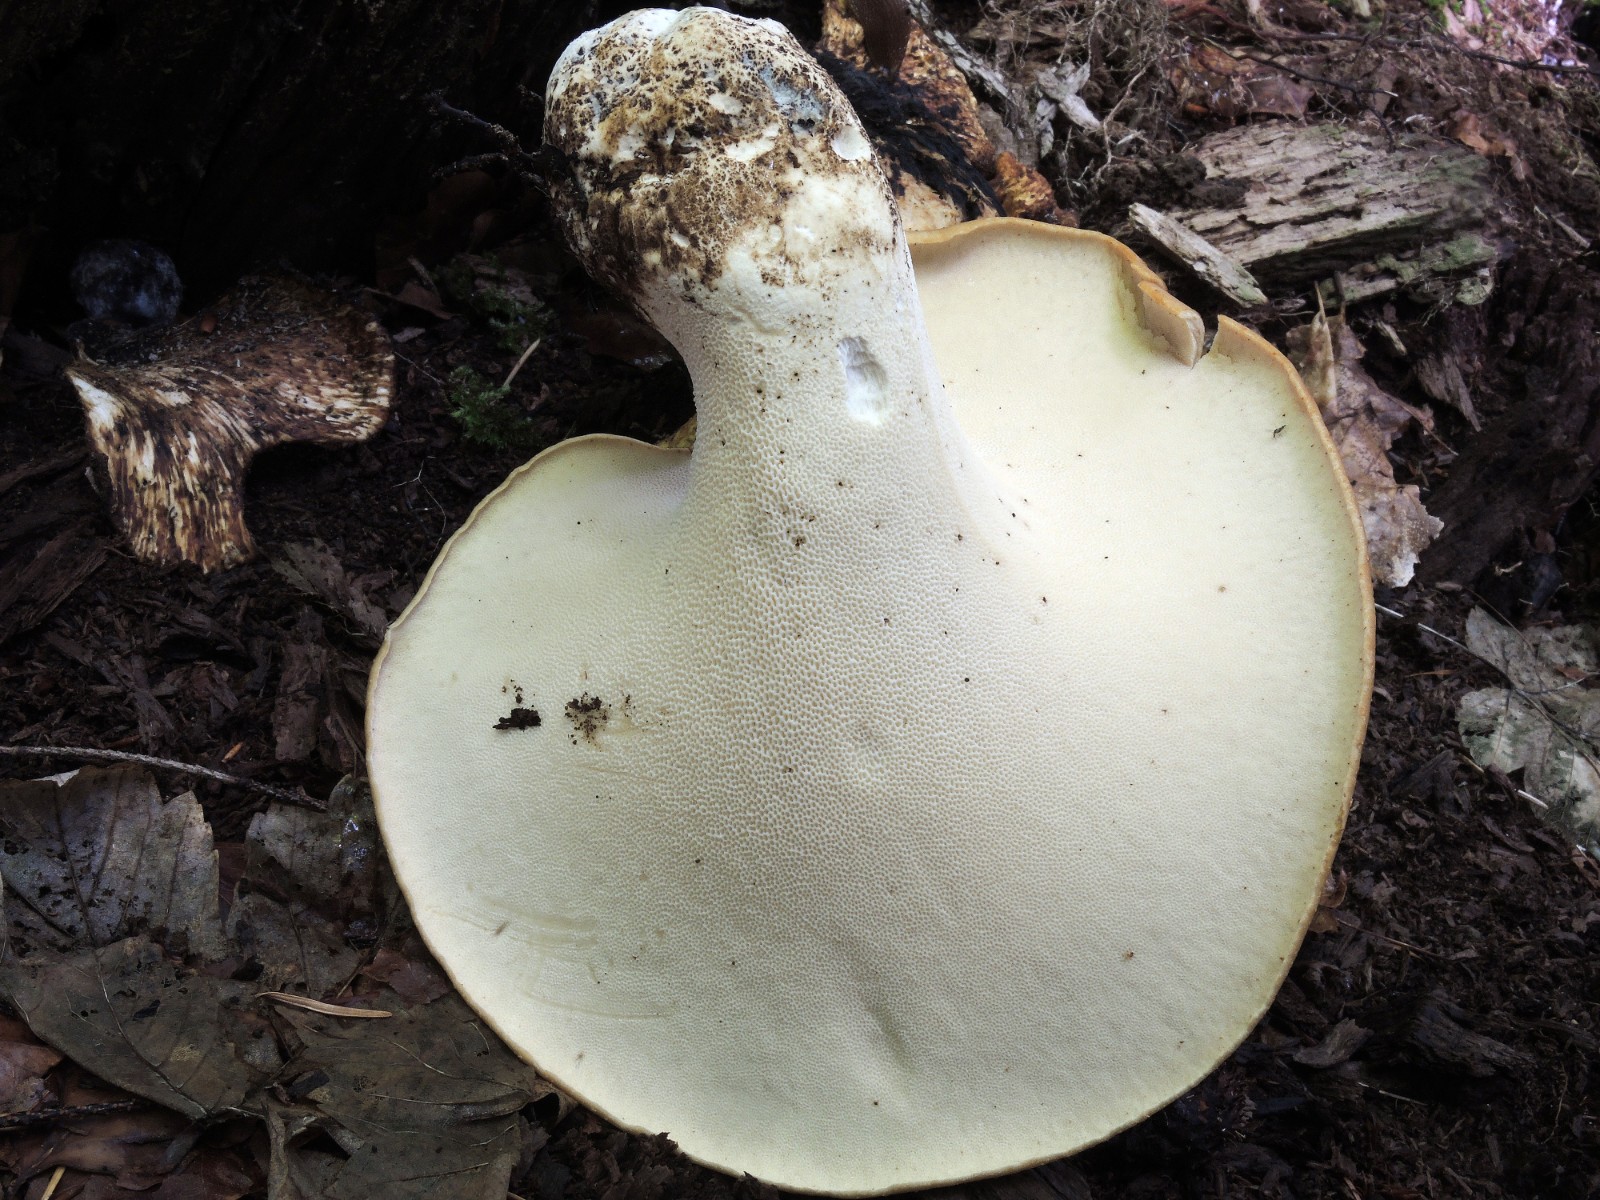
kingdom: Fungi
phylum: Basidiomycota
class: Agaricomycetes
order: Polyporales
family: Polyporaceae
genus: Cerioporus
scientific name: Cerioporus squamosus
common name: skællet stilkporesvamp
